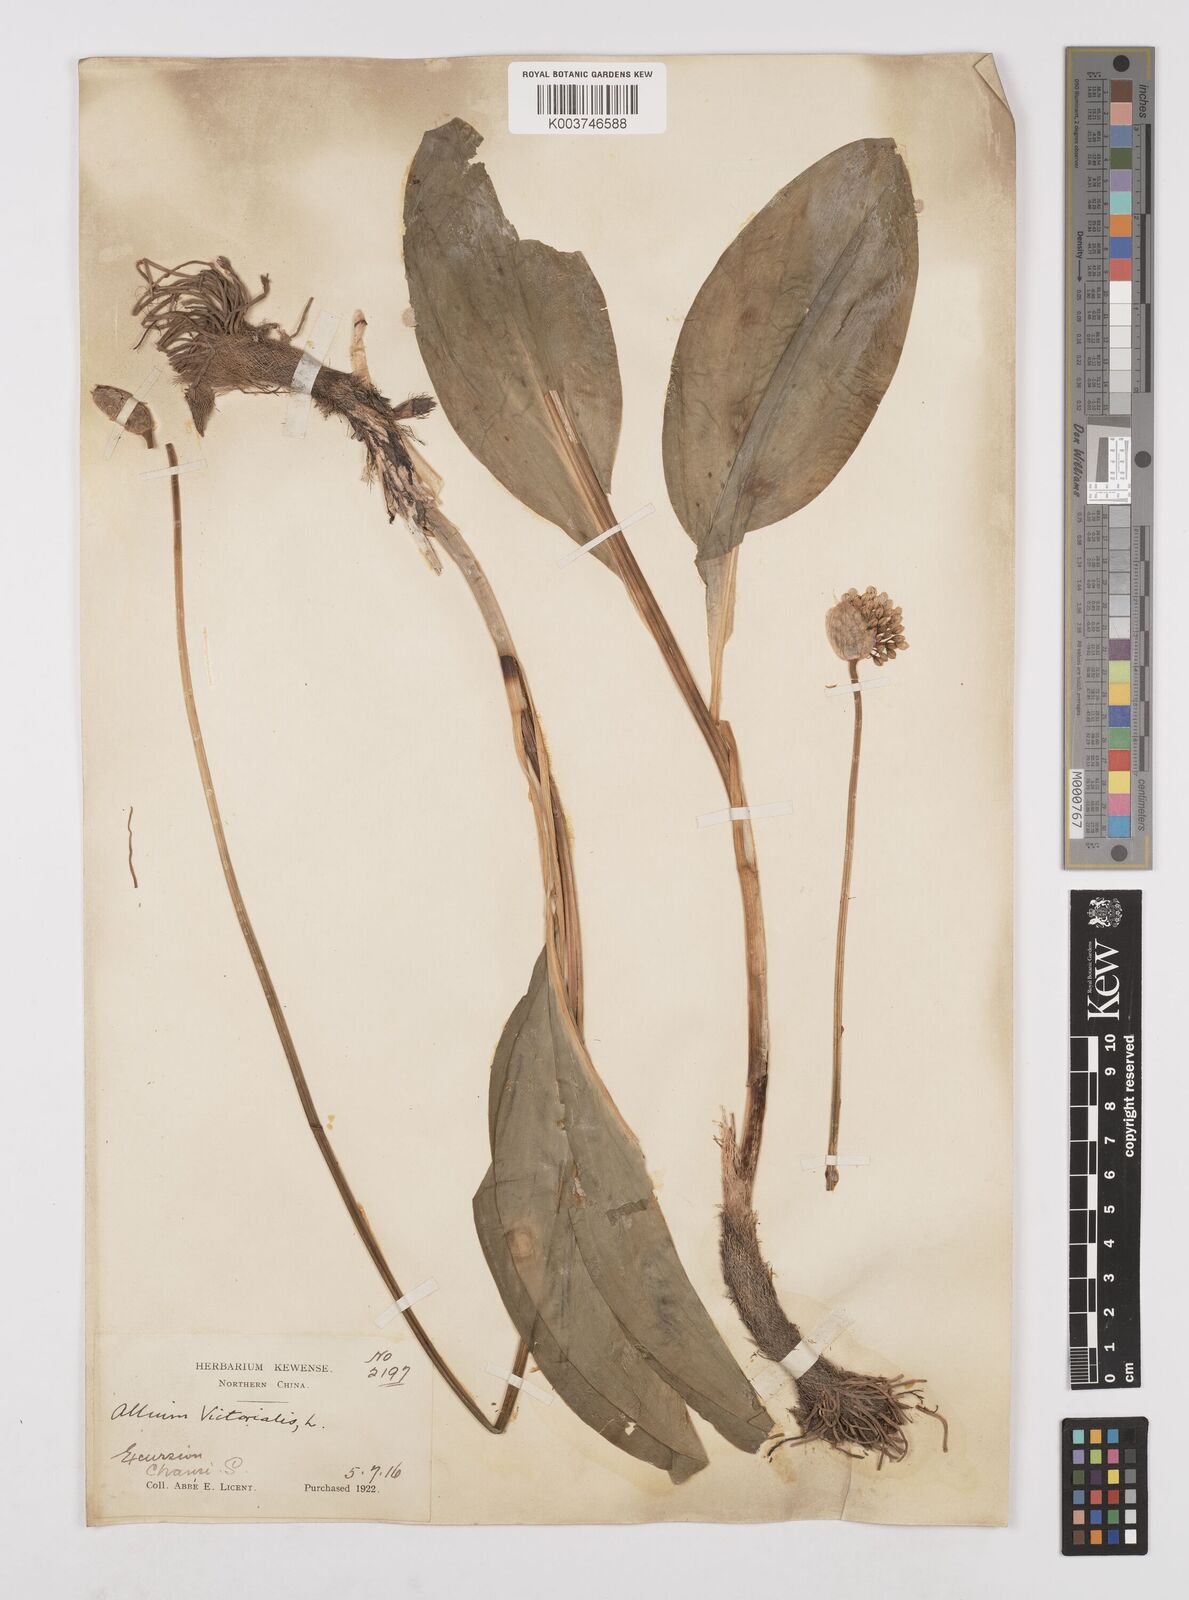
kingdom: Plantae
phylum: Tracheophyta
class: Liliopsida
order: Asparagales
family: Amaryllidaceae
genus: Allium
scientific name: Allium victorialis
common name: Alpine leek
